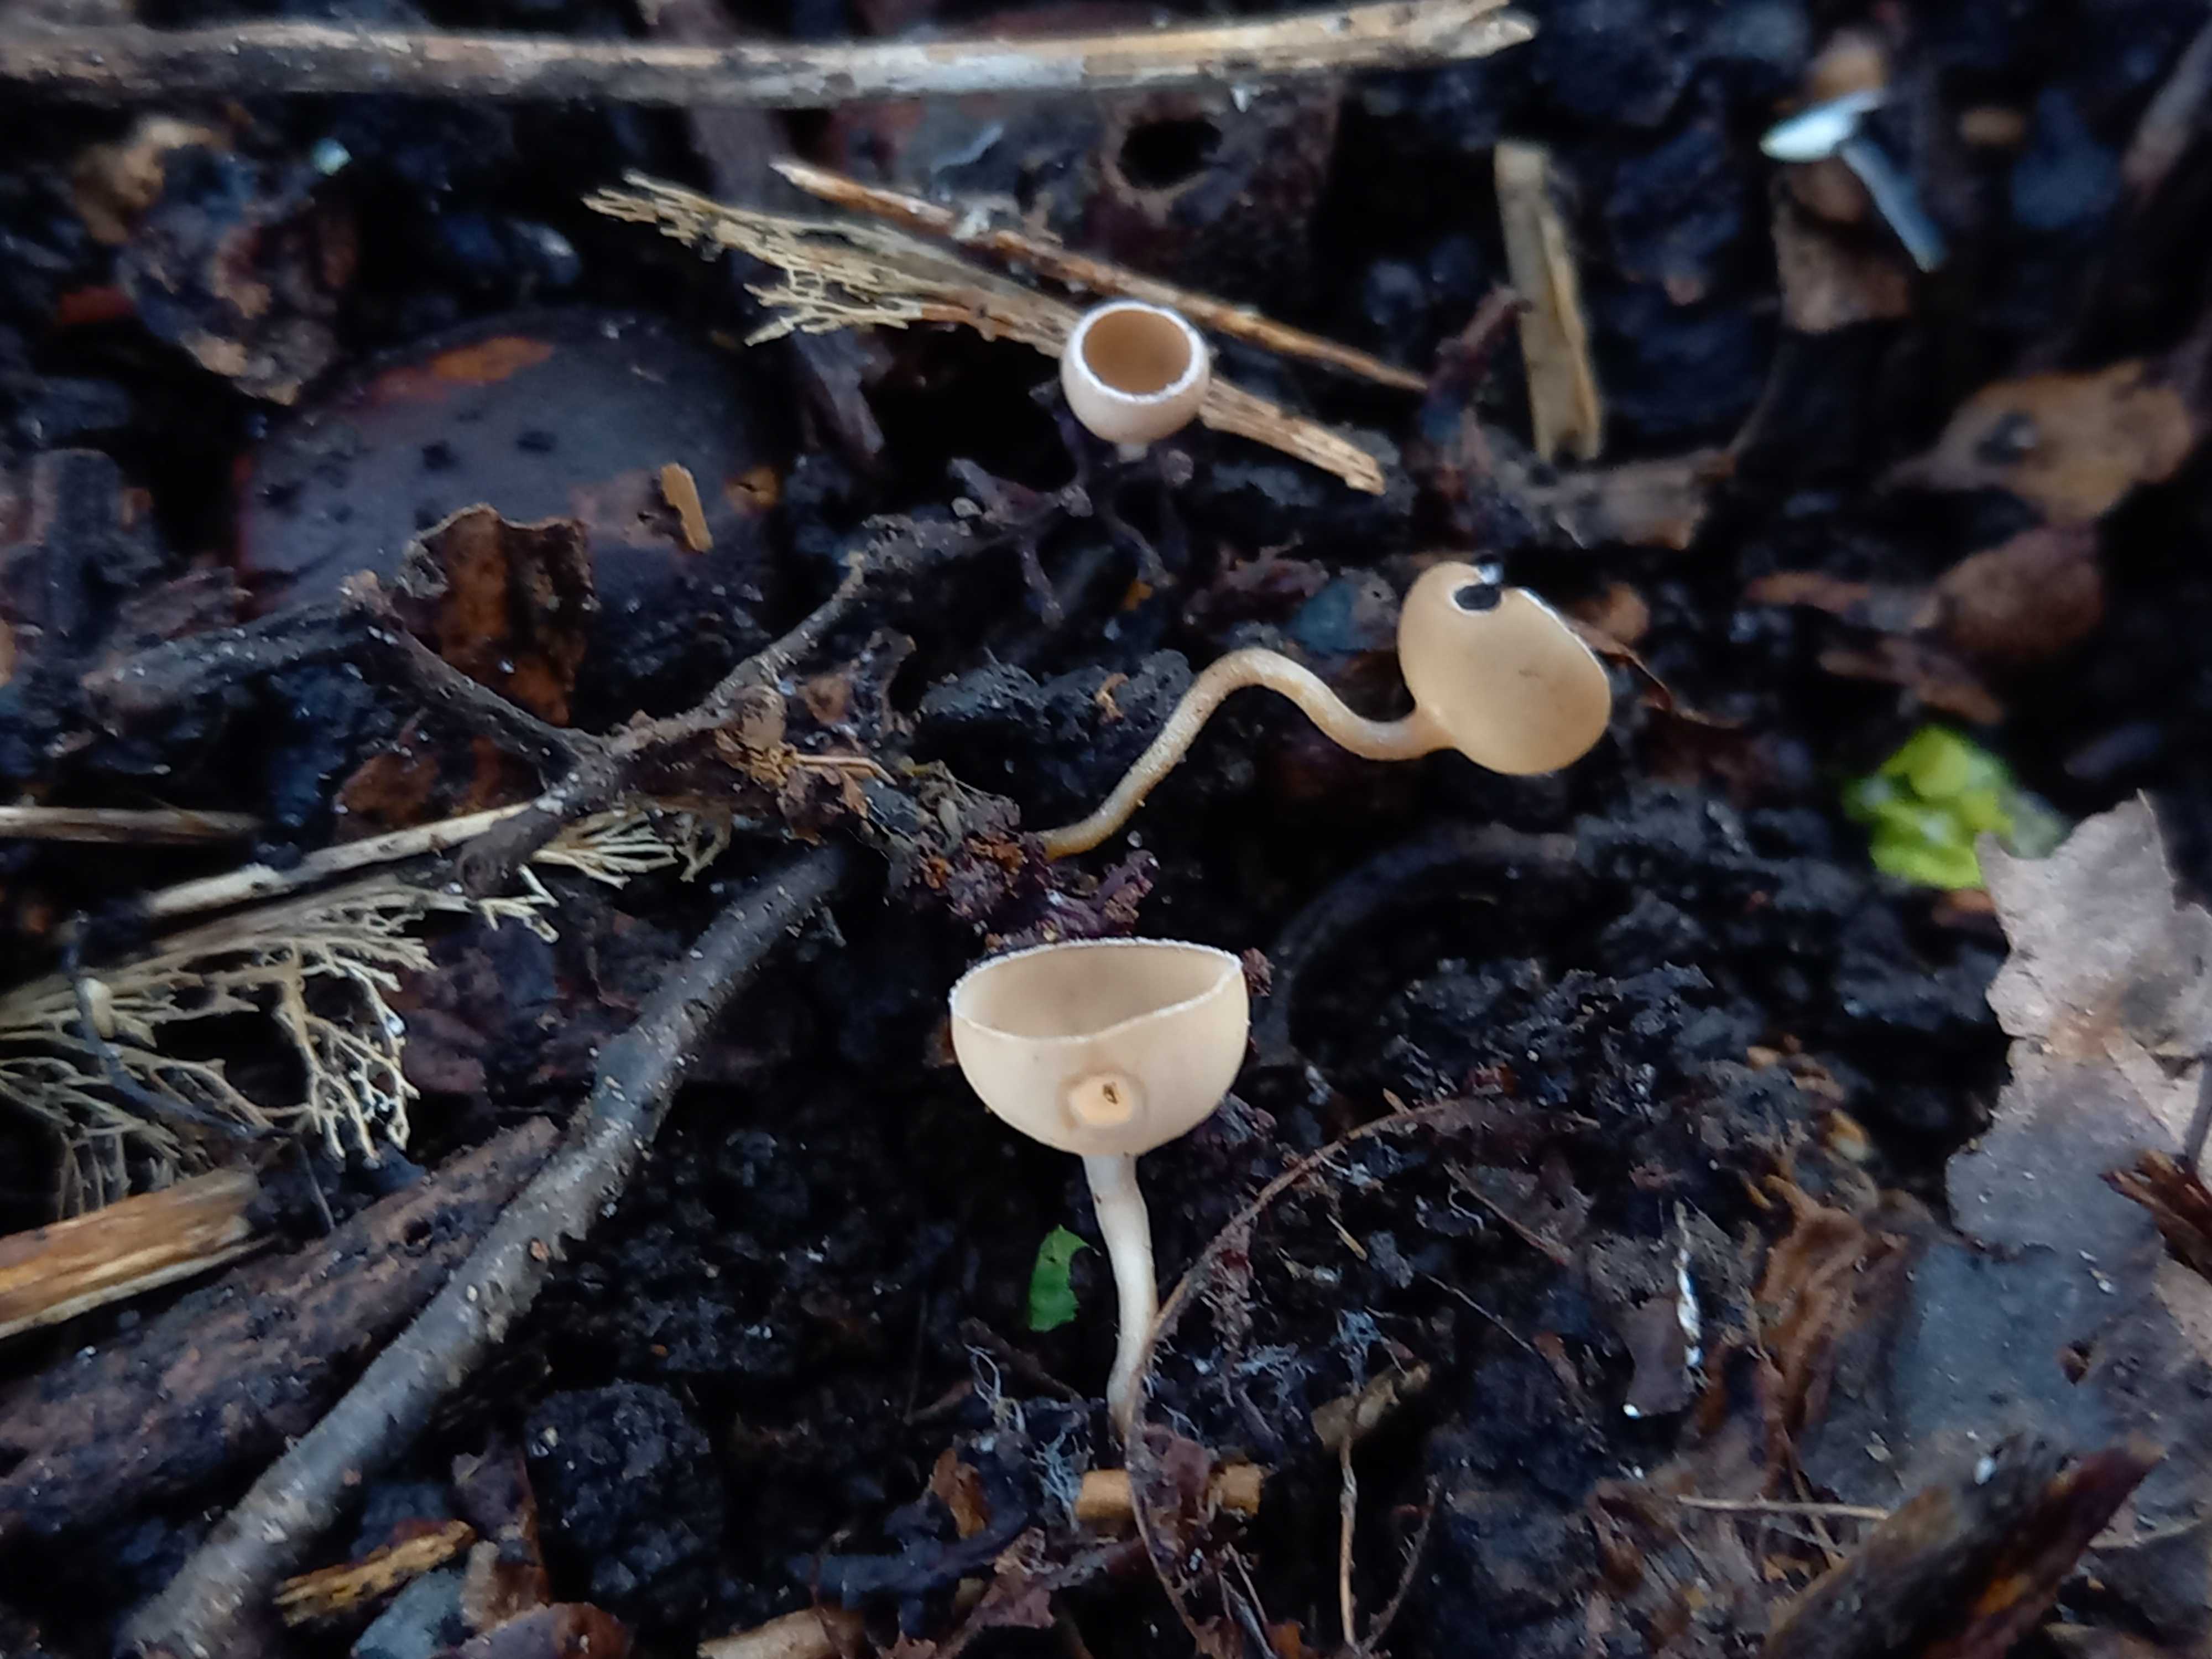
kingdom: Fungi
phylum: Ascomycota
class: Leotiomycetes
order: Helotiales
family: Sclerotiniaceae
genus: Ciboria
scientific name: Ciboria amentacea
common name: ellerakle-knoldskive
